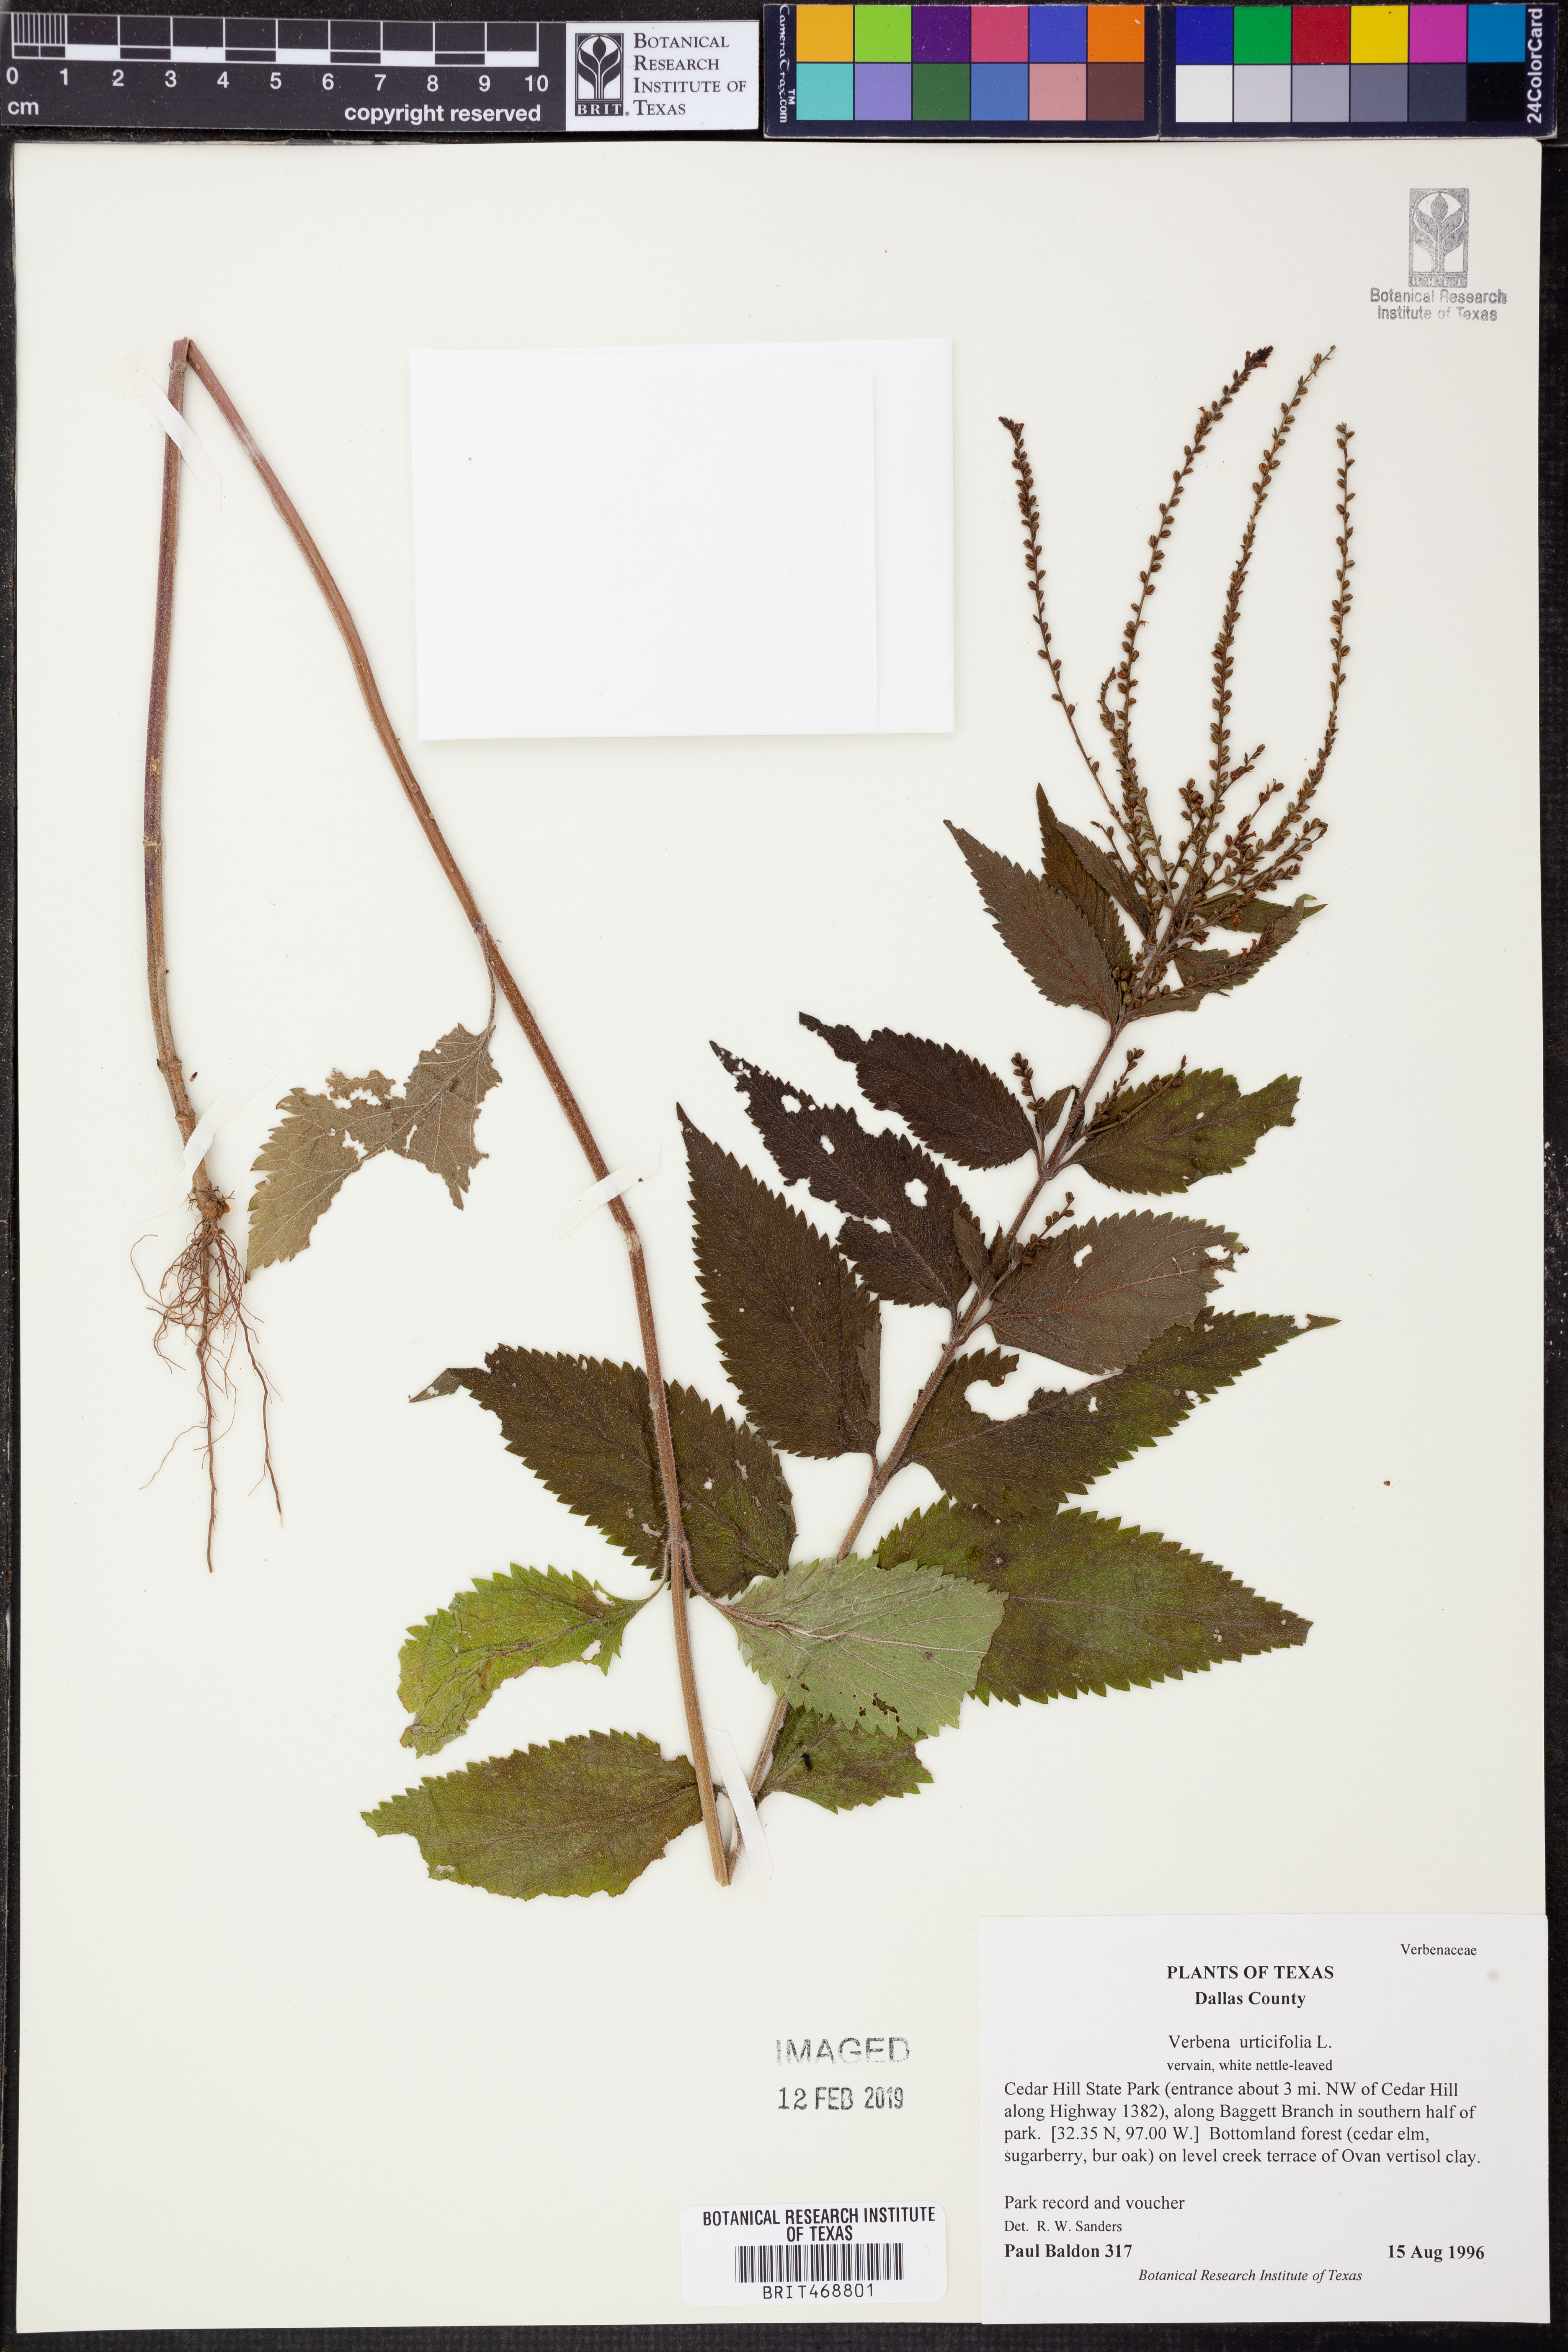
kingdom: Plantae
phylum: Tracheophyta
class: Magnoliopsida
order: Lamiales
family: Verbenaceae
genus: Verbena
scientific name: Verbena urticifolia
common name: Nettle-leaved vervain
